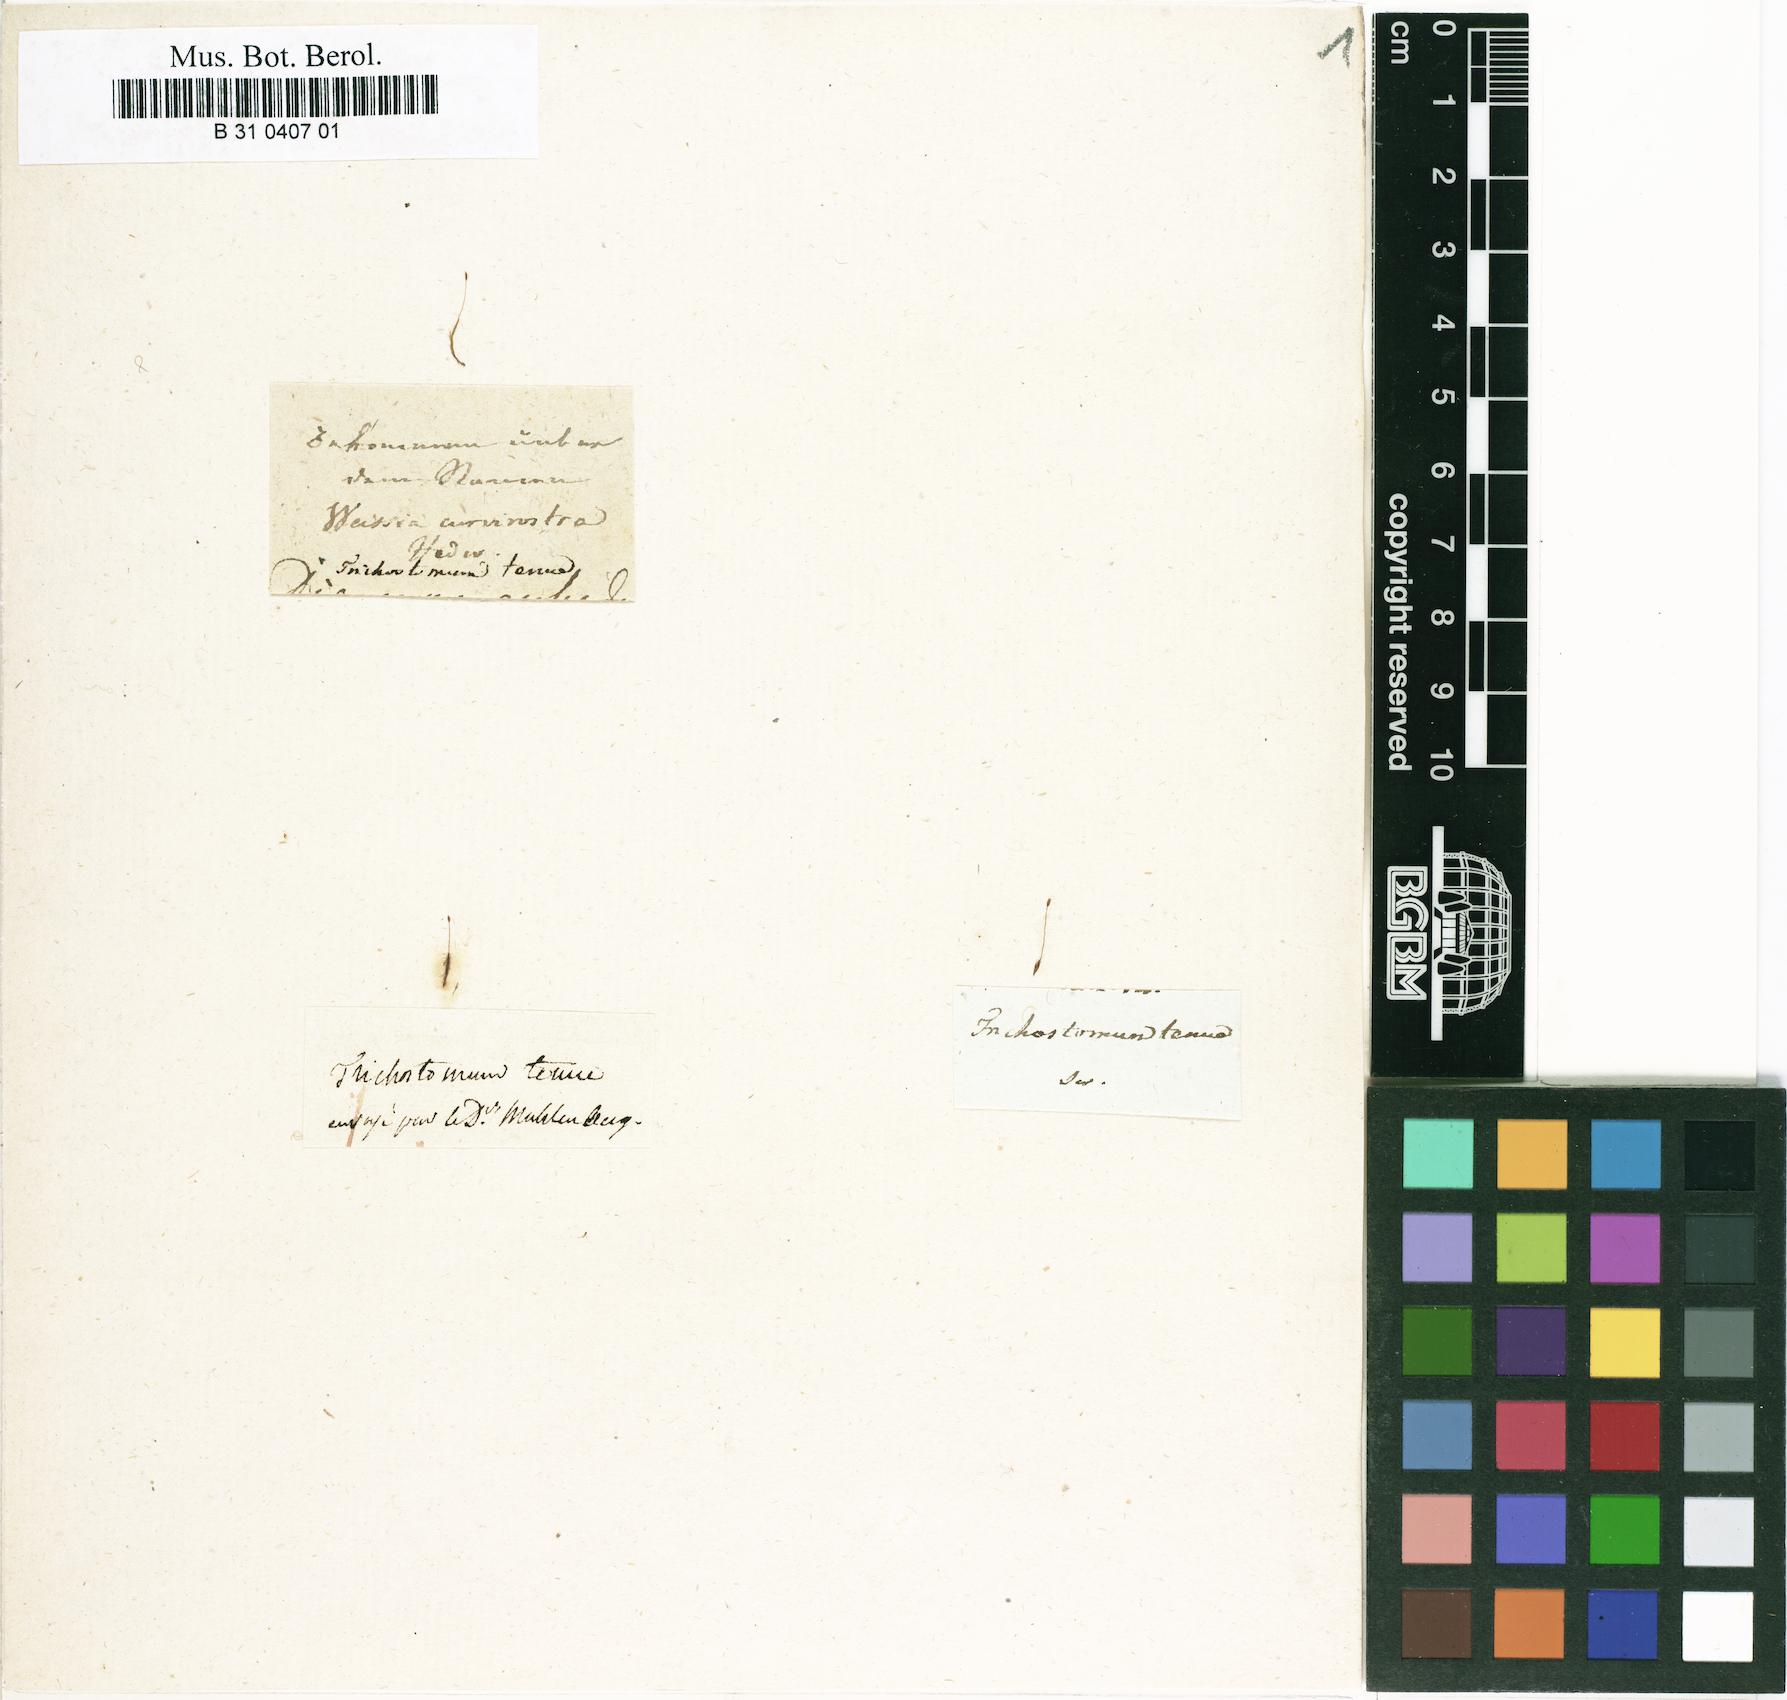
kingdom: Plantae
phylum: Bryophyta
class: Bryopsida
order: Dicranales
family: Ditrichaceae
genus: Ditrichum
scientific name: Ditrichum pusillum
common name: Brown cow-hair moss
